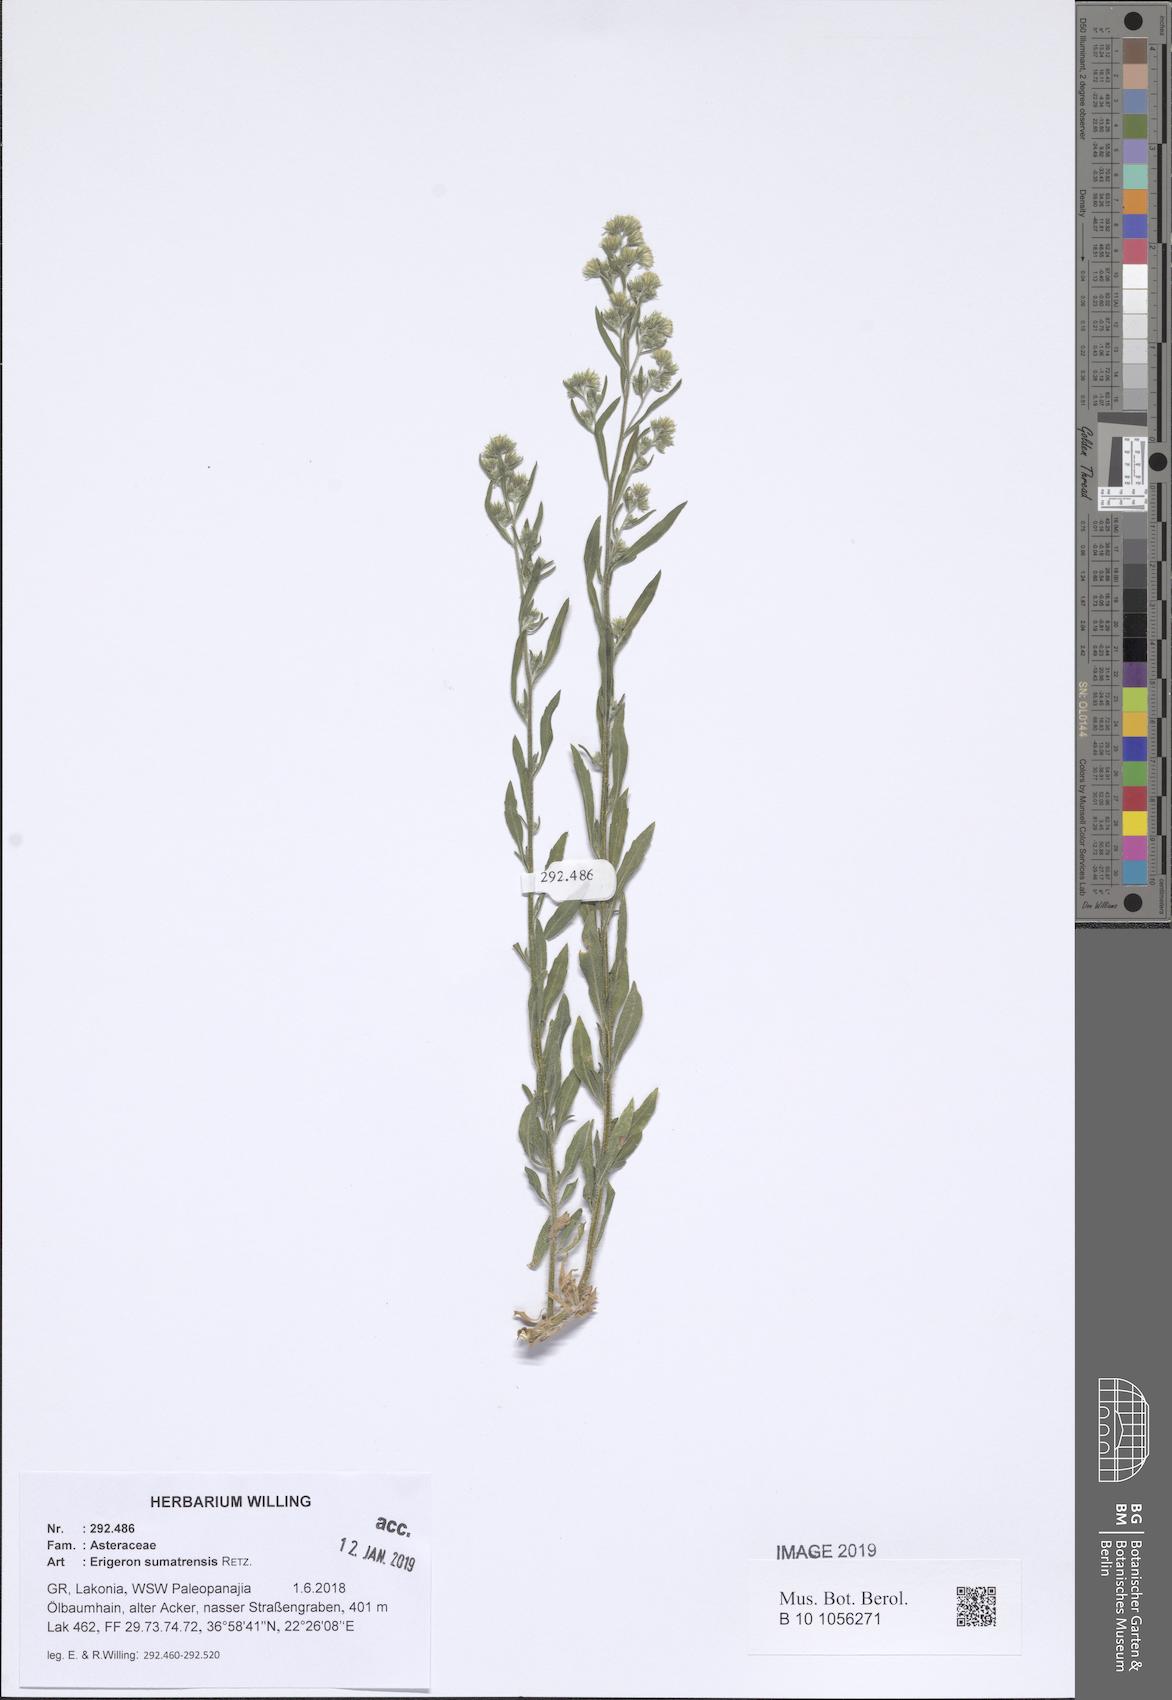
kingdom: Plantae
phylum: Tracheophyta
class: Magnoliopsida
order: Asterales
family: Asteraceae
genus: Erigeron
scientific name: Erigeron sumatrensis
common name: Daisy
